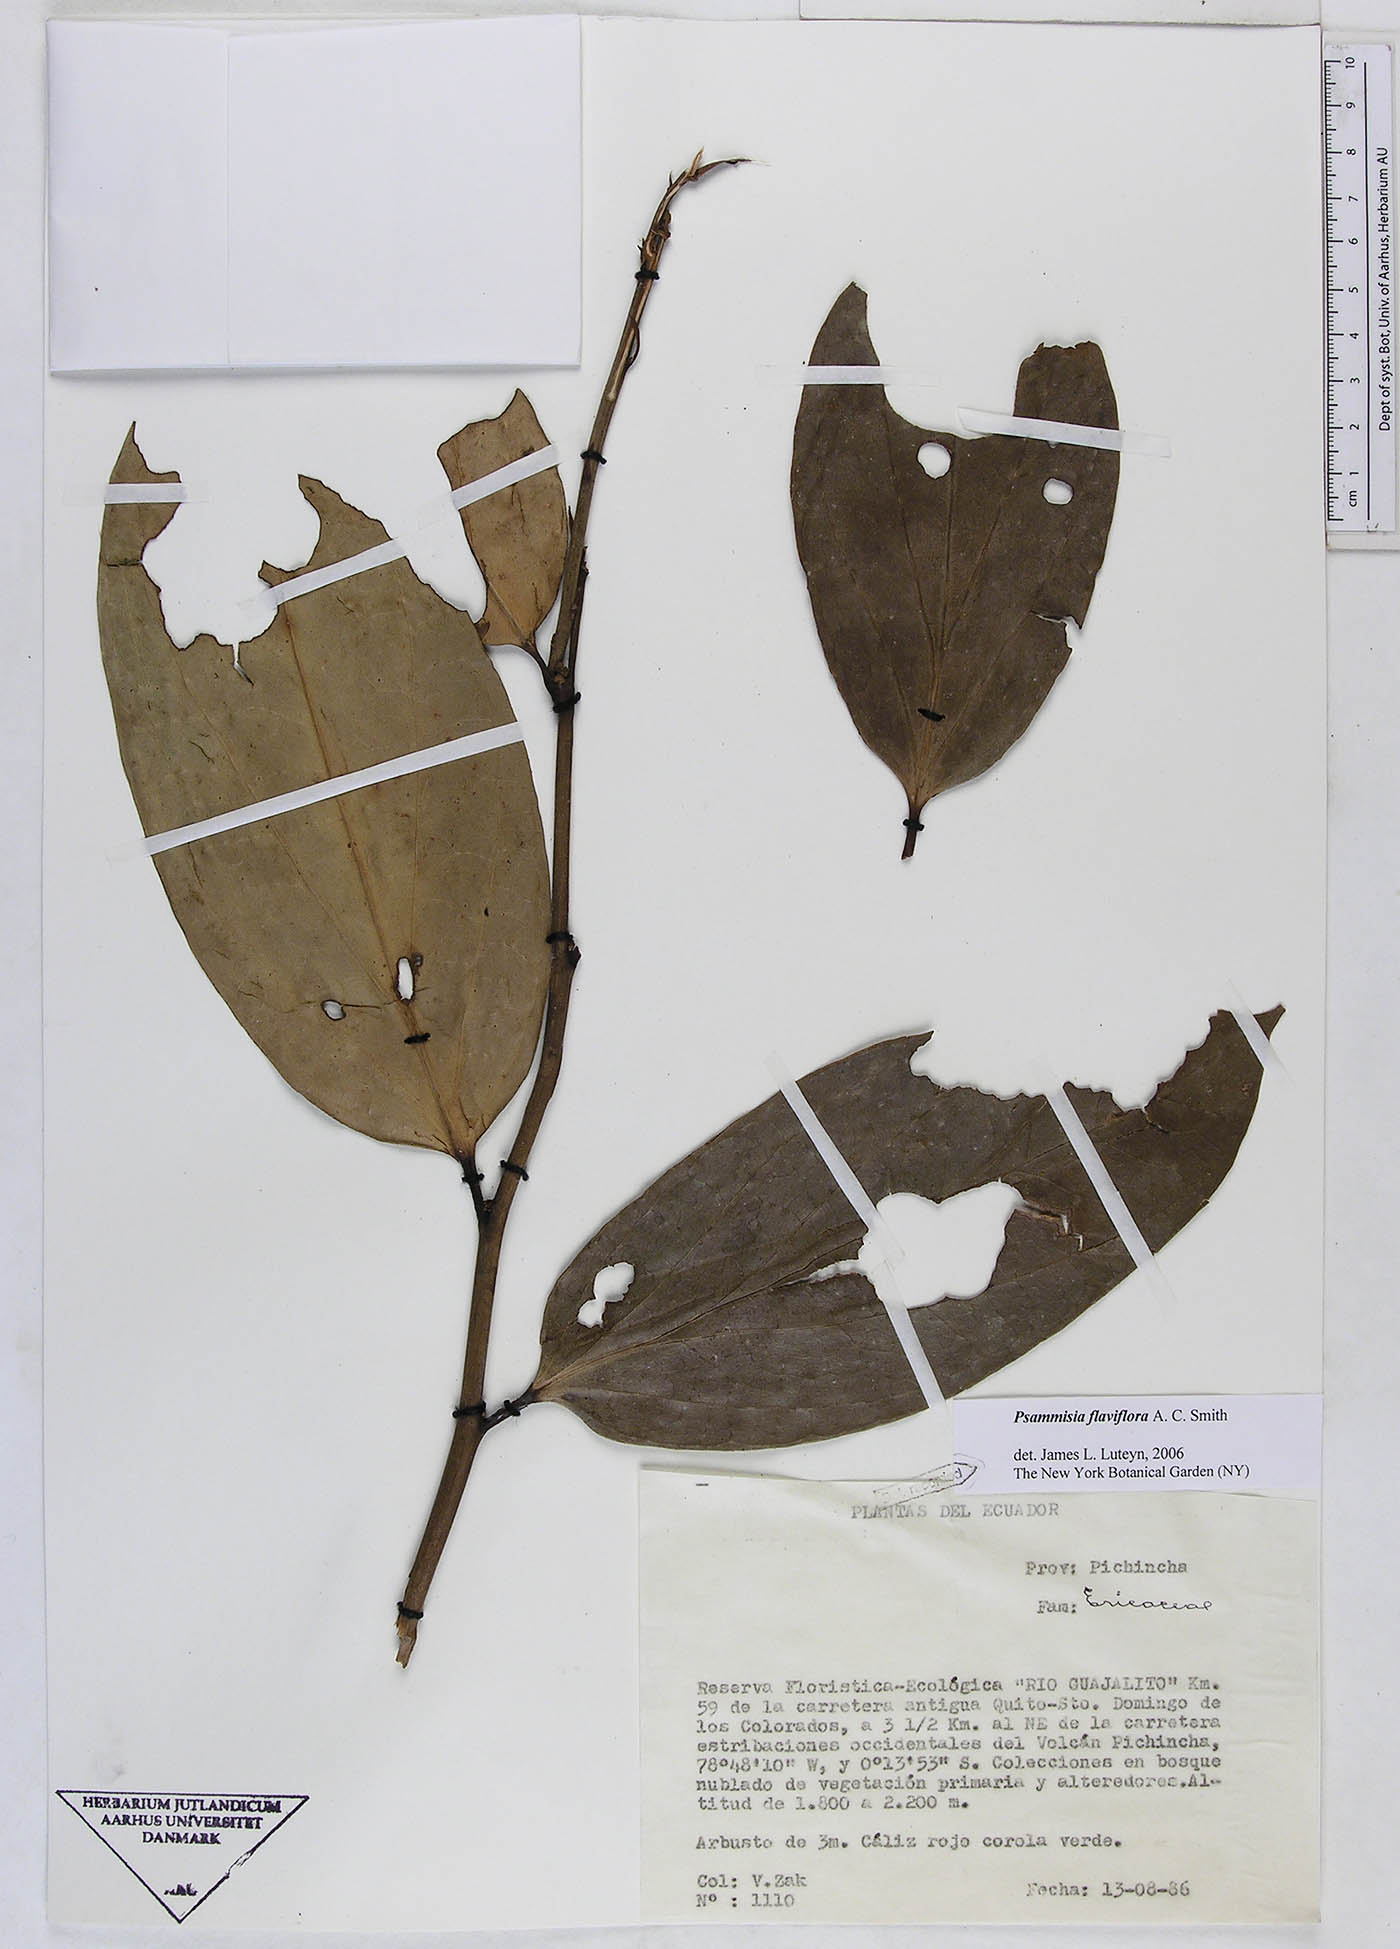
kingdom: Plantae
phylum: Tracheophyta
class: Magnoliopsida
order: Ericales
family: Ericaceae
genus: Psammisia
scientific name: Psammisia flaviflora
